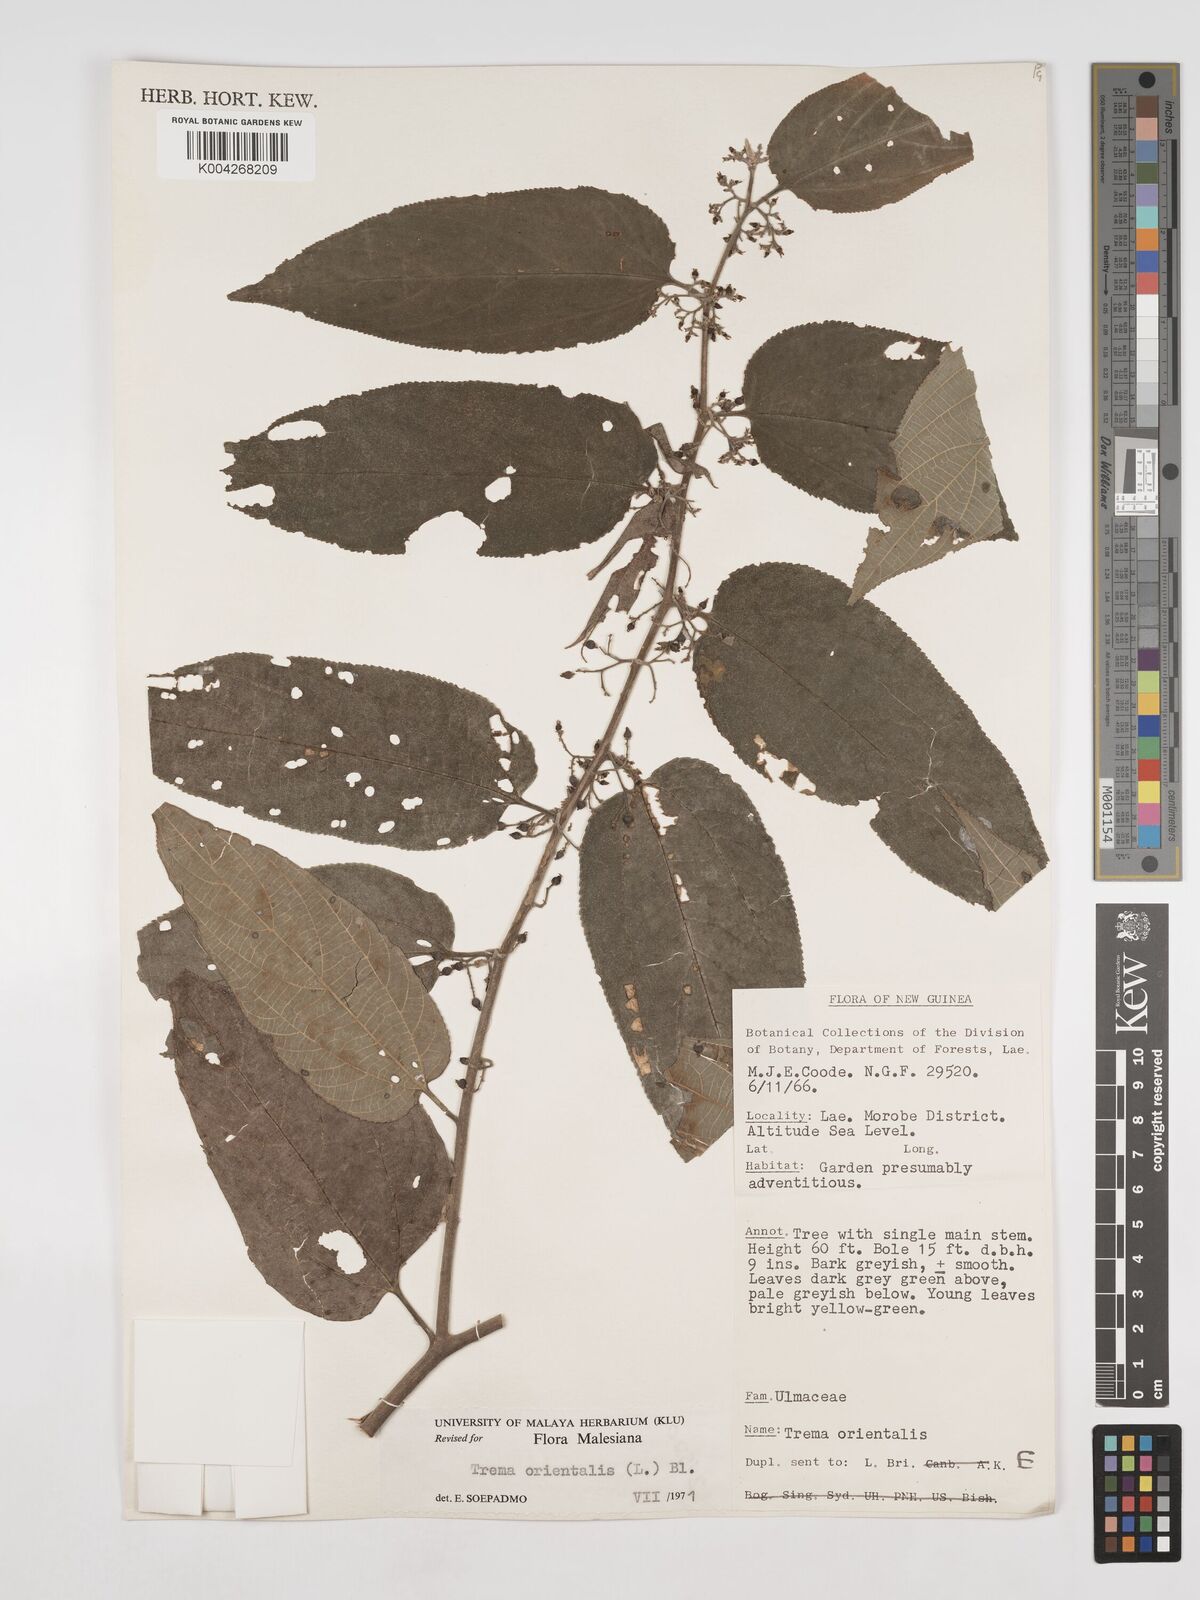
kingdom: Plantae
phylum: Tracheophyta
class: Magnoliopsida
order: Rosales
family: Cannabaceae
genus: Trema
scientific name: Trema orientale
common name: Indian charcoal tree
